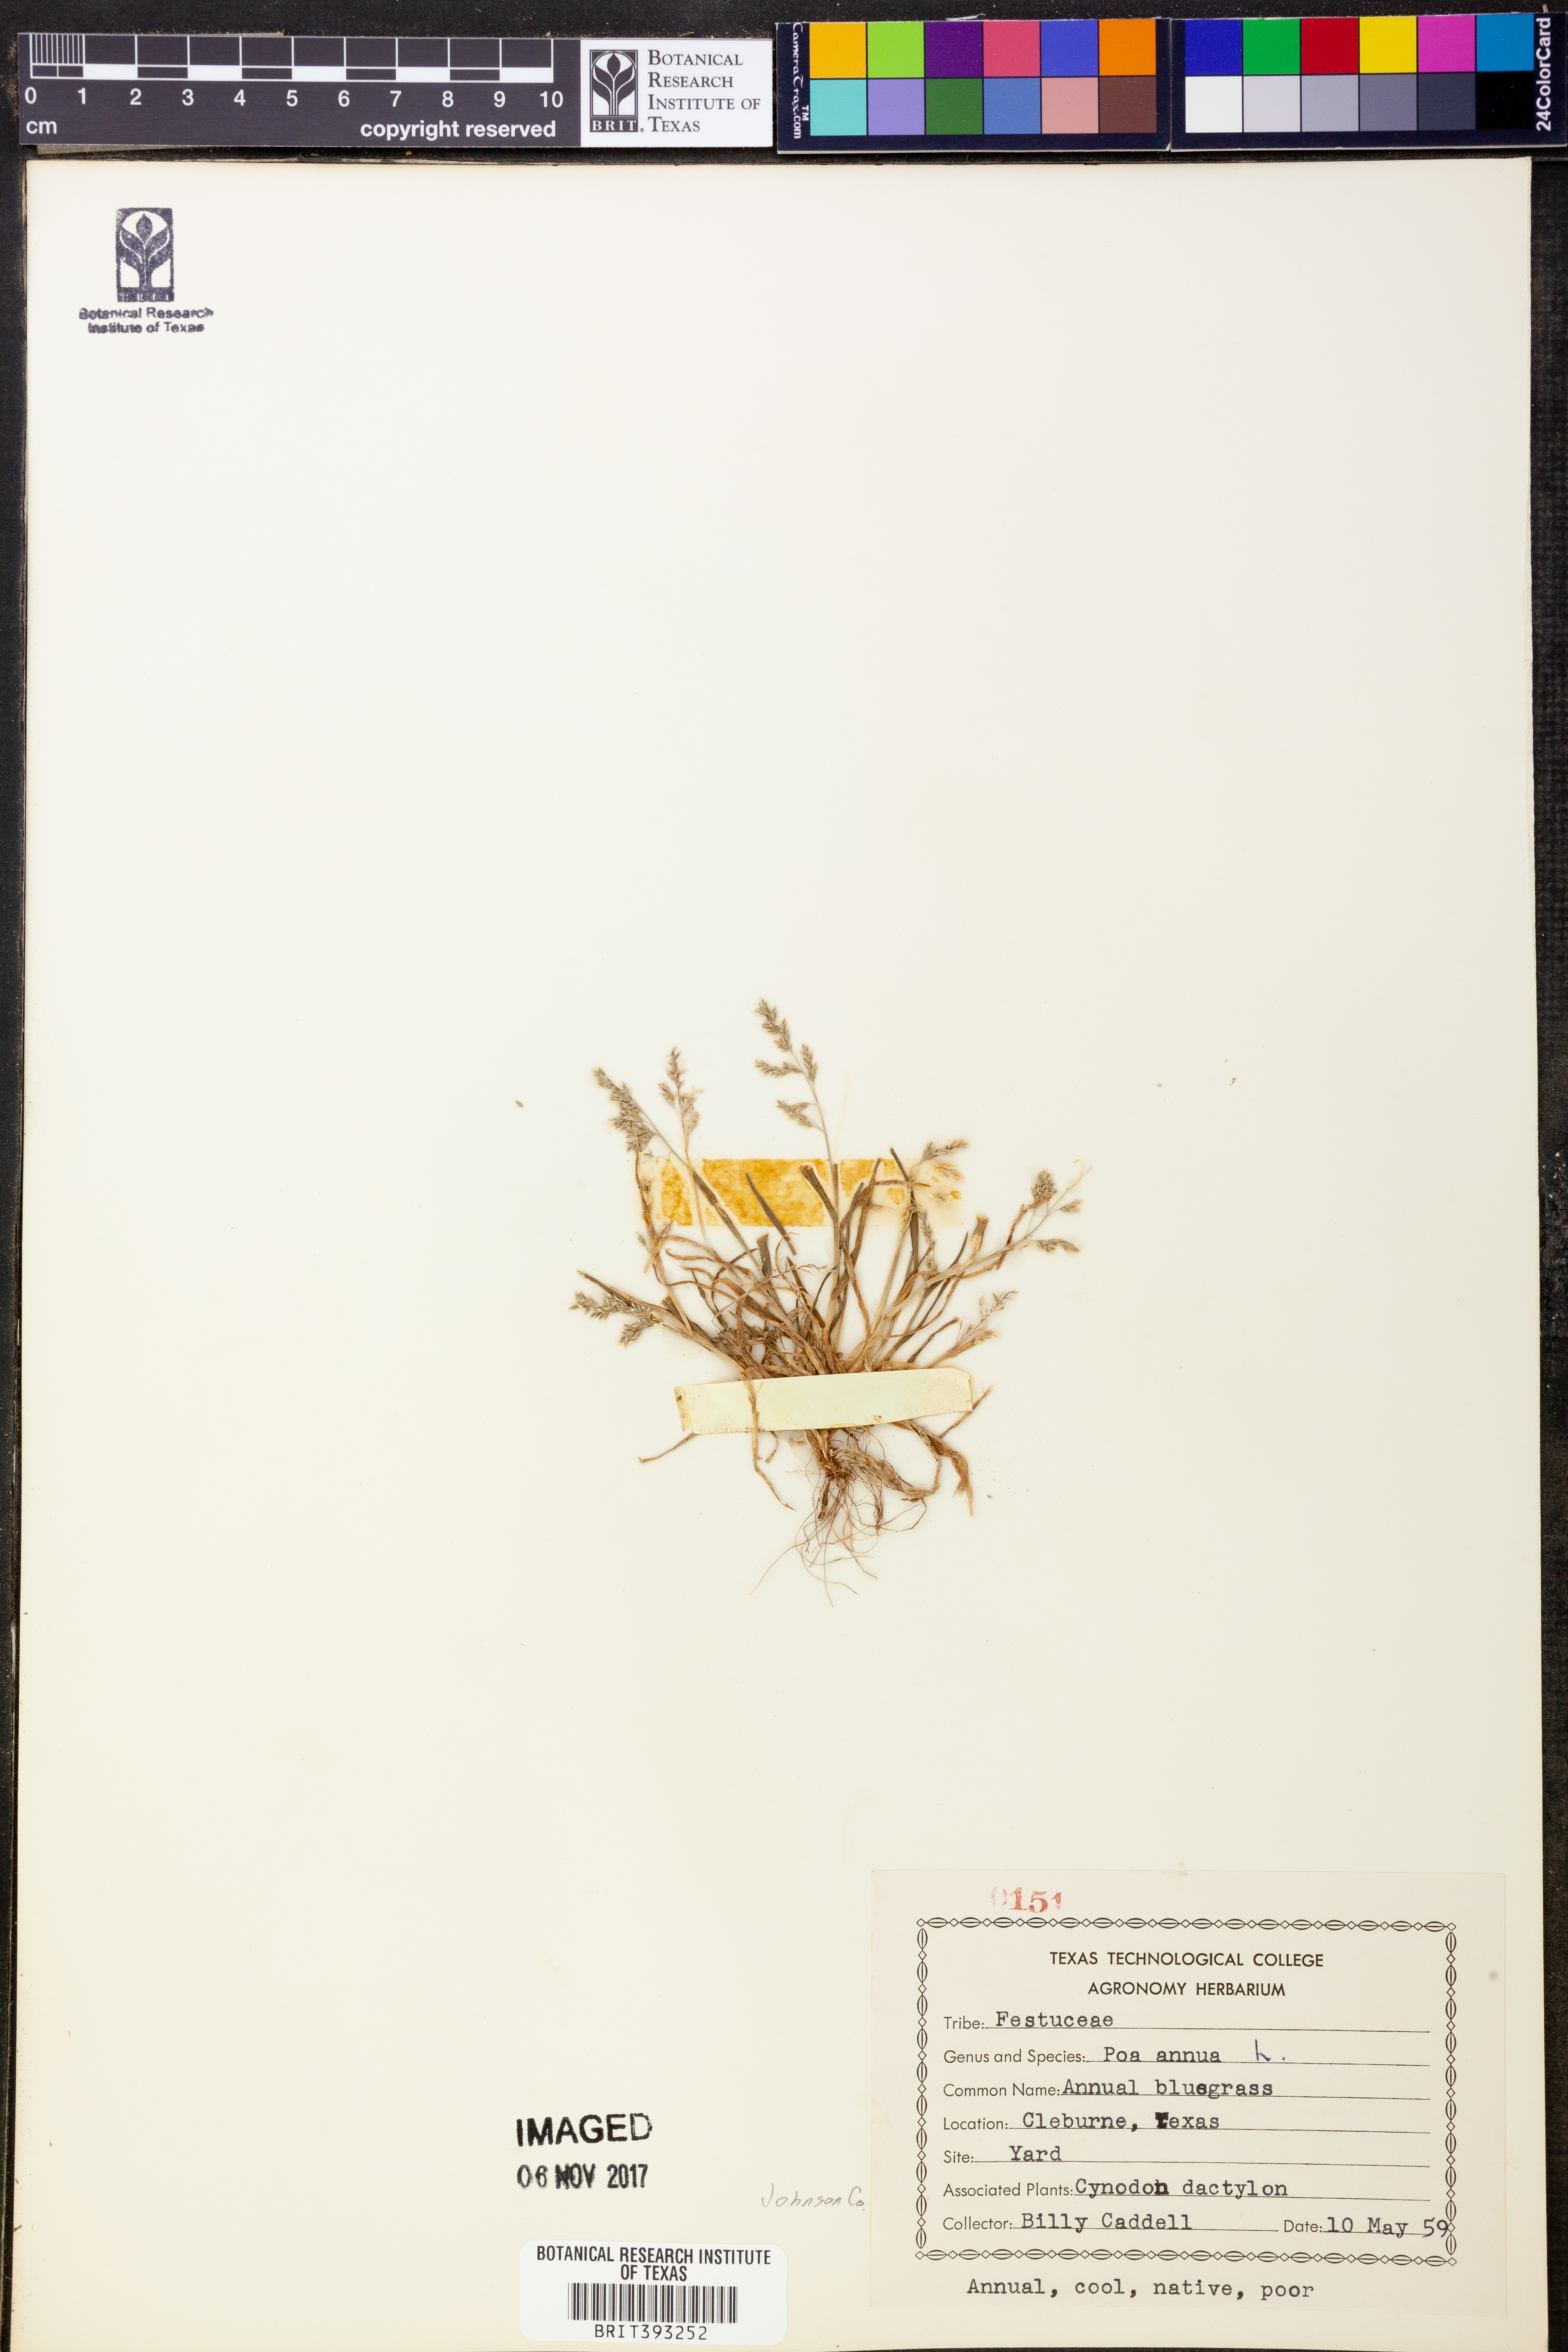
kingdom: Plantae
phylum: Tracheophyta
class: Liliopsida
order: Poales
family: Poaceae
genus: Poa
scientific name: Poa annua
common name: Annual bluegrass
